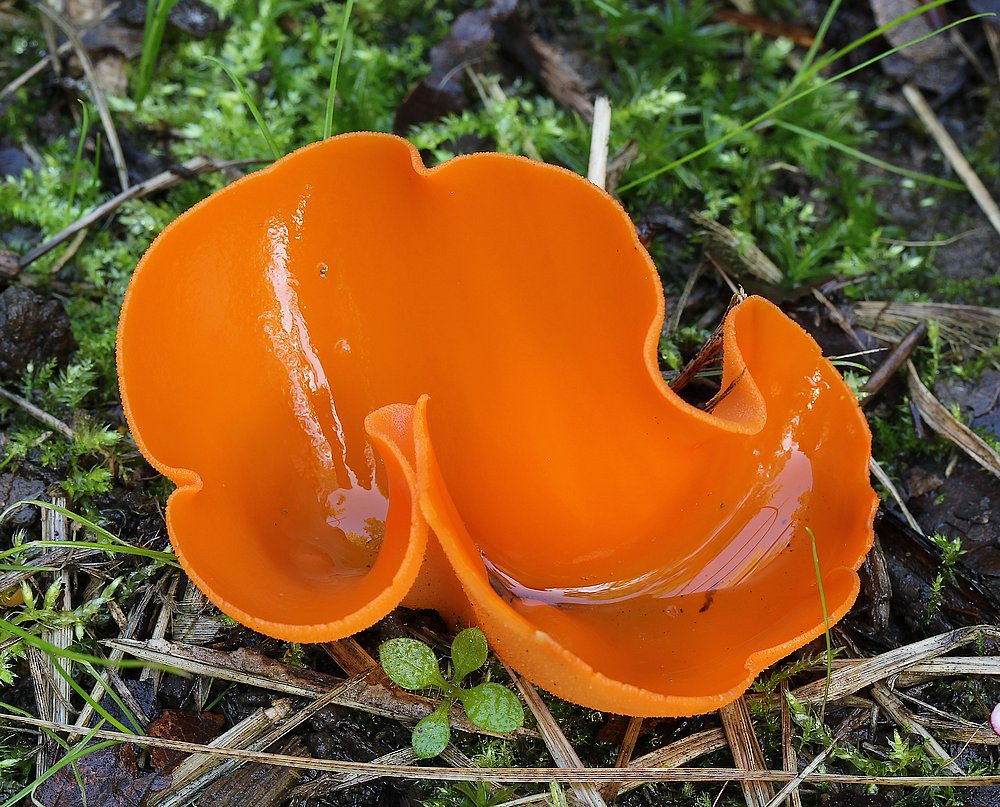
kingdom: Fungi
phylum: Ascomycota
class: Pezizomycetes
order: Pezizales
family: Pyronemataceae
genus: Aleuria
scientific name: Aleuria aurantia
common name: almindelig orangebæger
